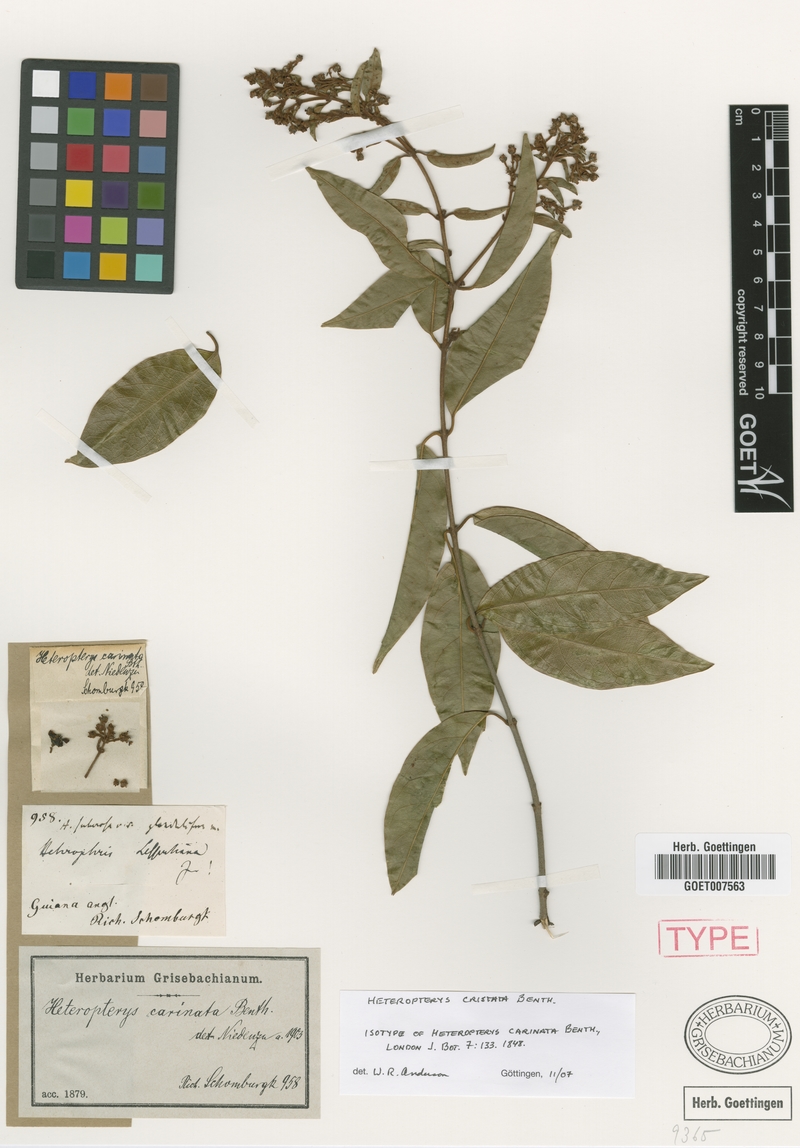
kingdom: Plantae
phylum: Tracheophyta
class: Magnoliopsida
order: Malpighiales
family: Malpighiaceae
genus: Heteropterys
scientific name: Heteropterys cristata
